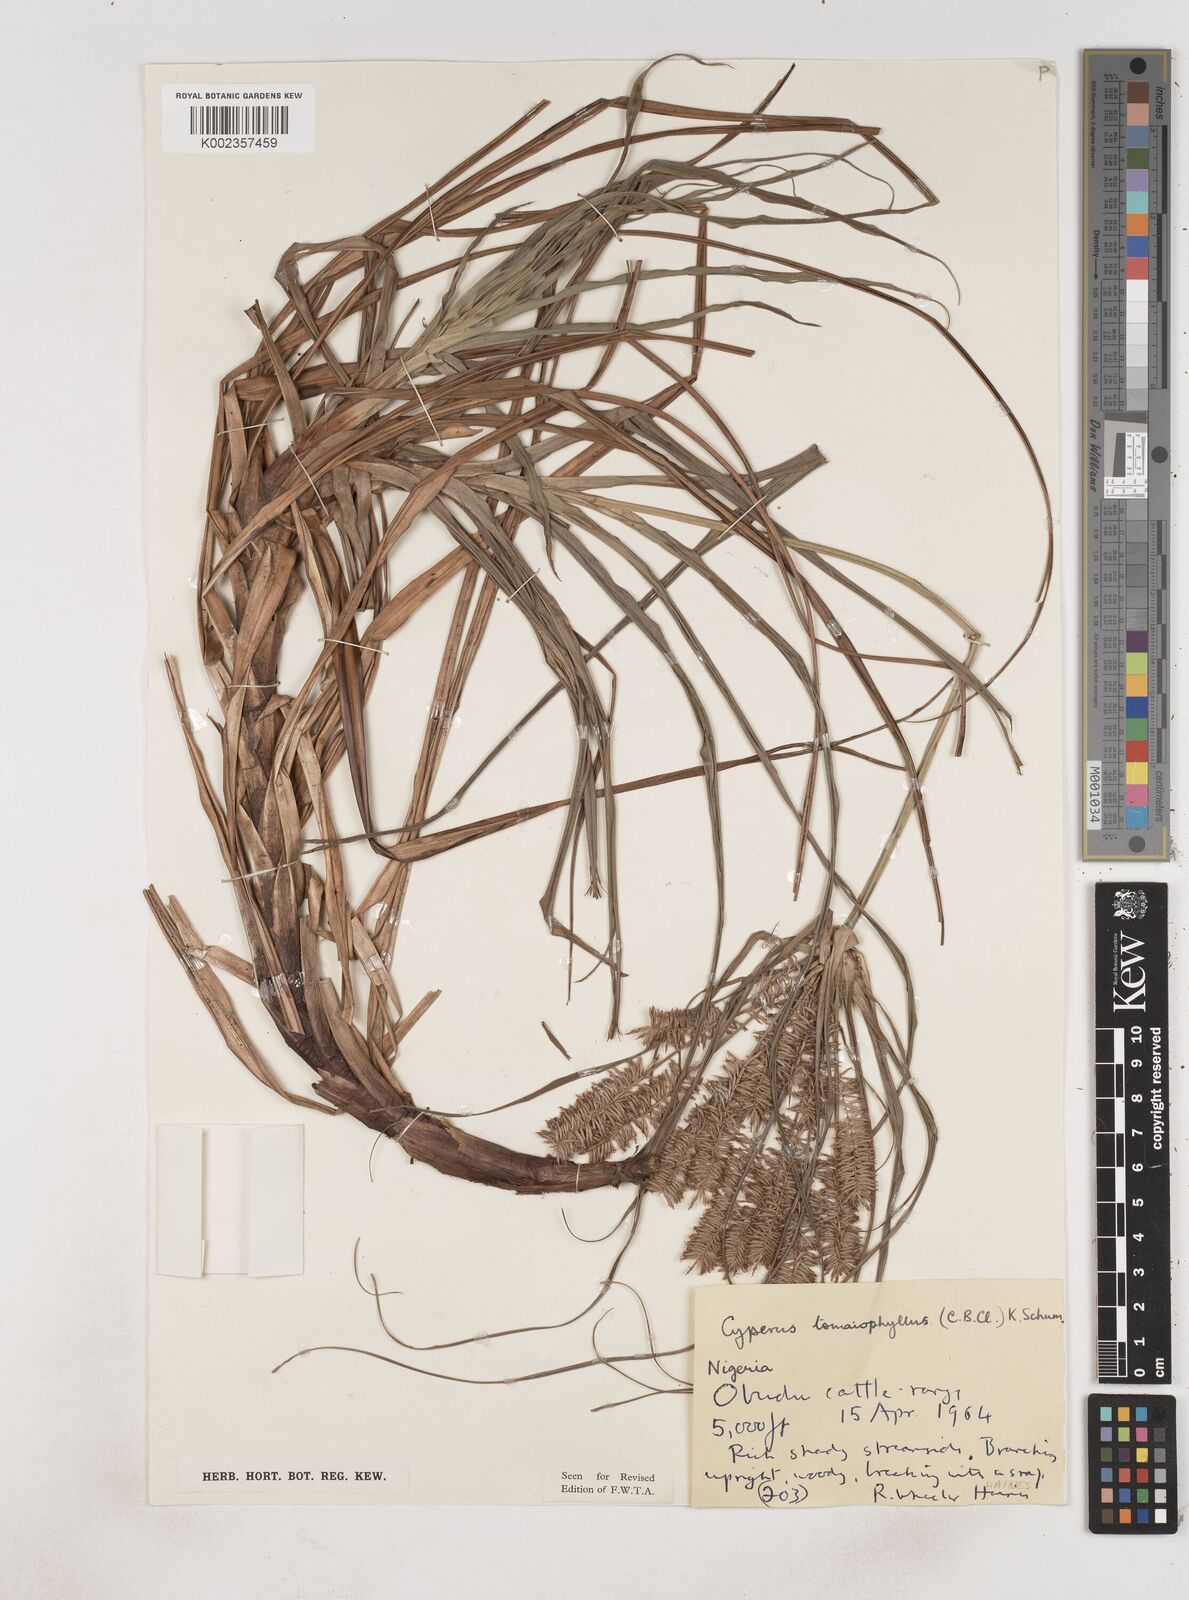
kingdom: Plantae
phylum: Tracheophyta
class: Liliopsida
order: Poales
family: Cyperaceae
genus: Cyperus
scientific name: Cyperus tomaiophyllus
